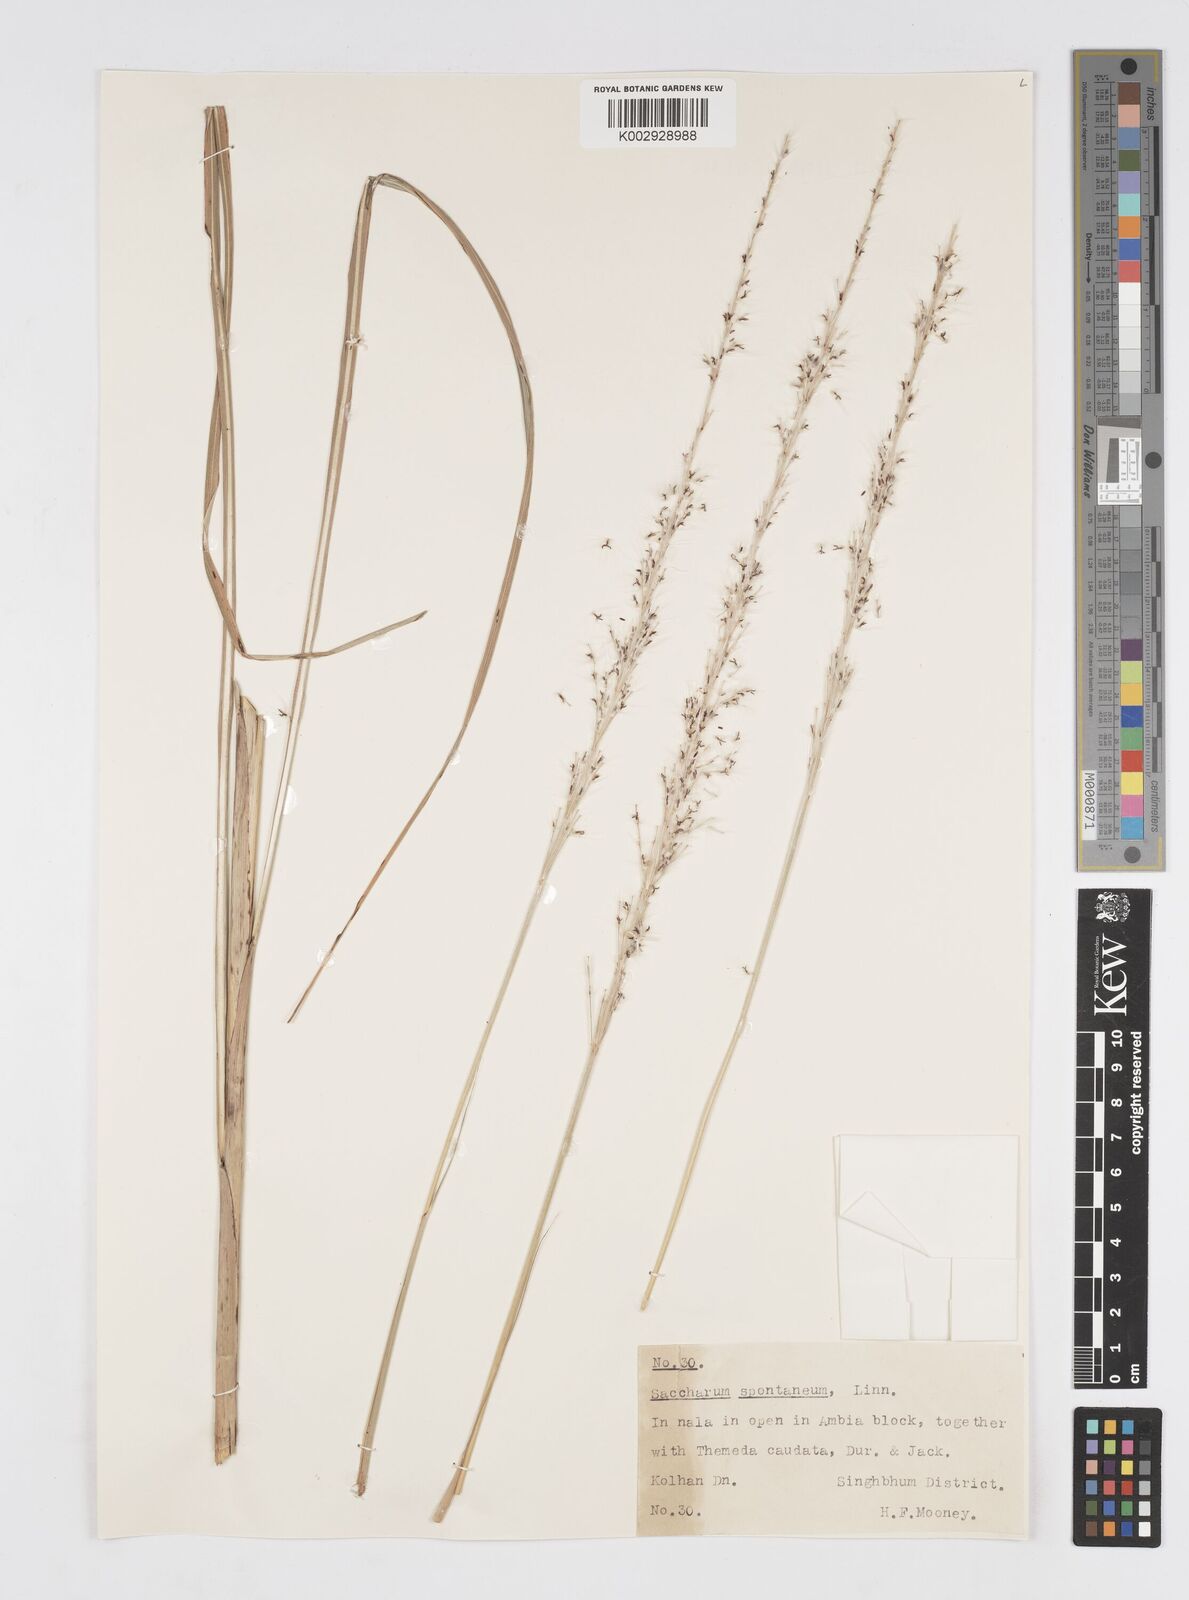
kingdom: Plantae
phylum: Tracheophyta
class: Liliopsida
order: Poales
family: Poaceae
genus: Saccharum
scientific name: Saccharum spontaneum
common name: Wild sugarcane
